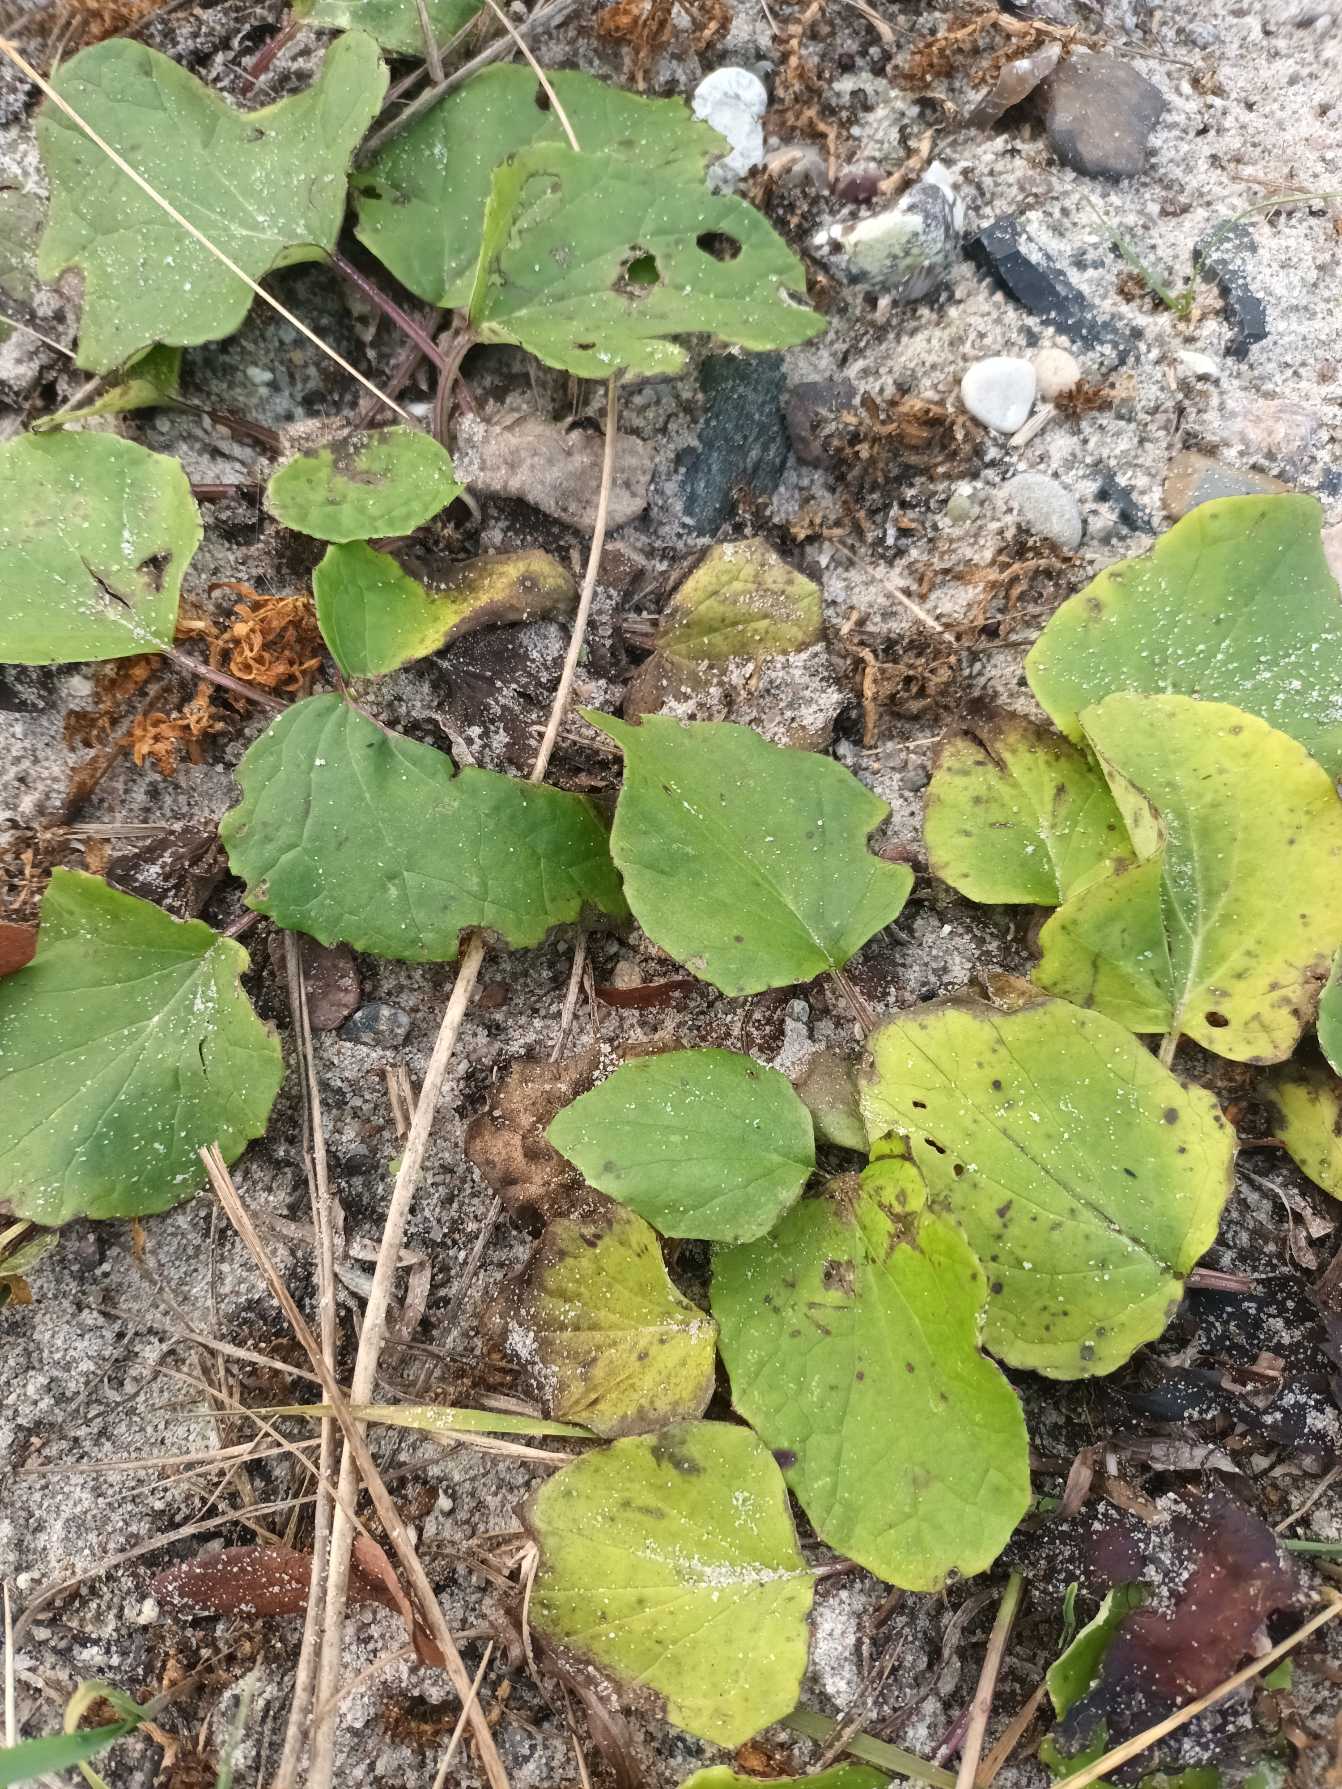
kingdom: Plantae
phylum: Tracheophyta
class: Magnoliopsida
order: Asterales
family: Asteraceae
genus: Tussilago
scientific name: Tussilago farfara
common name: Følfod
